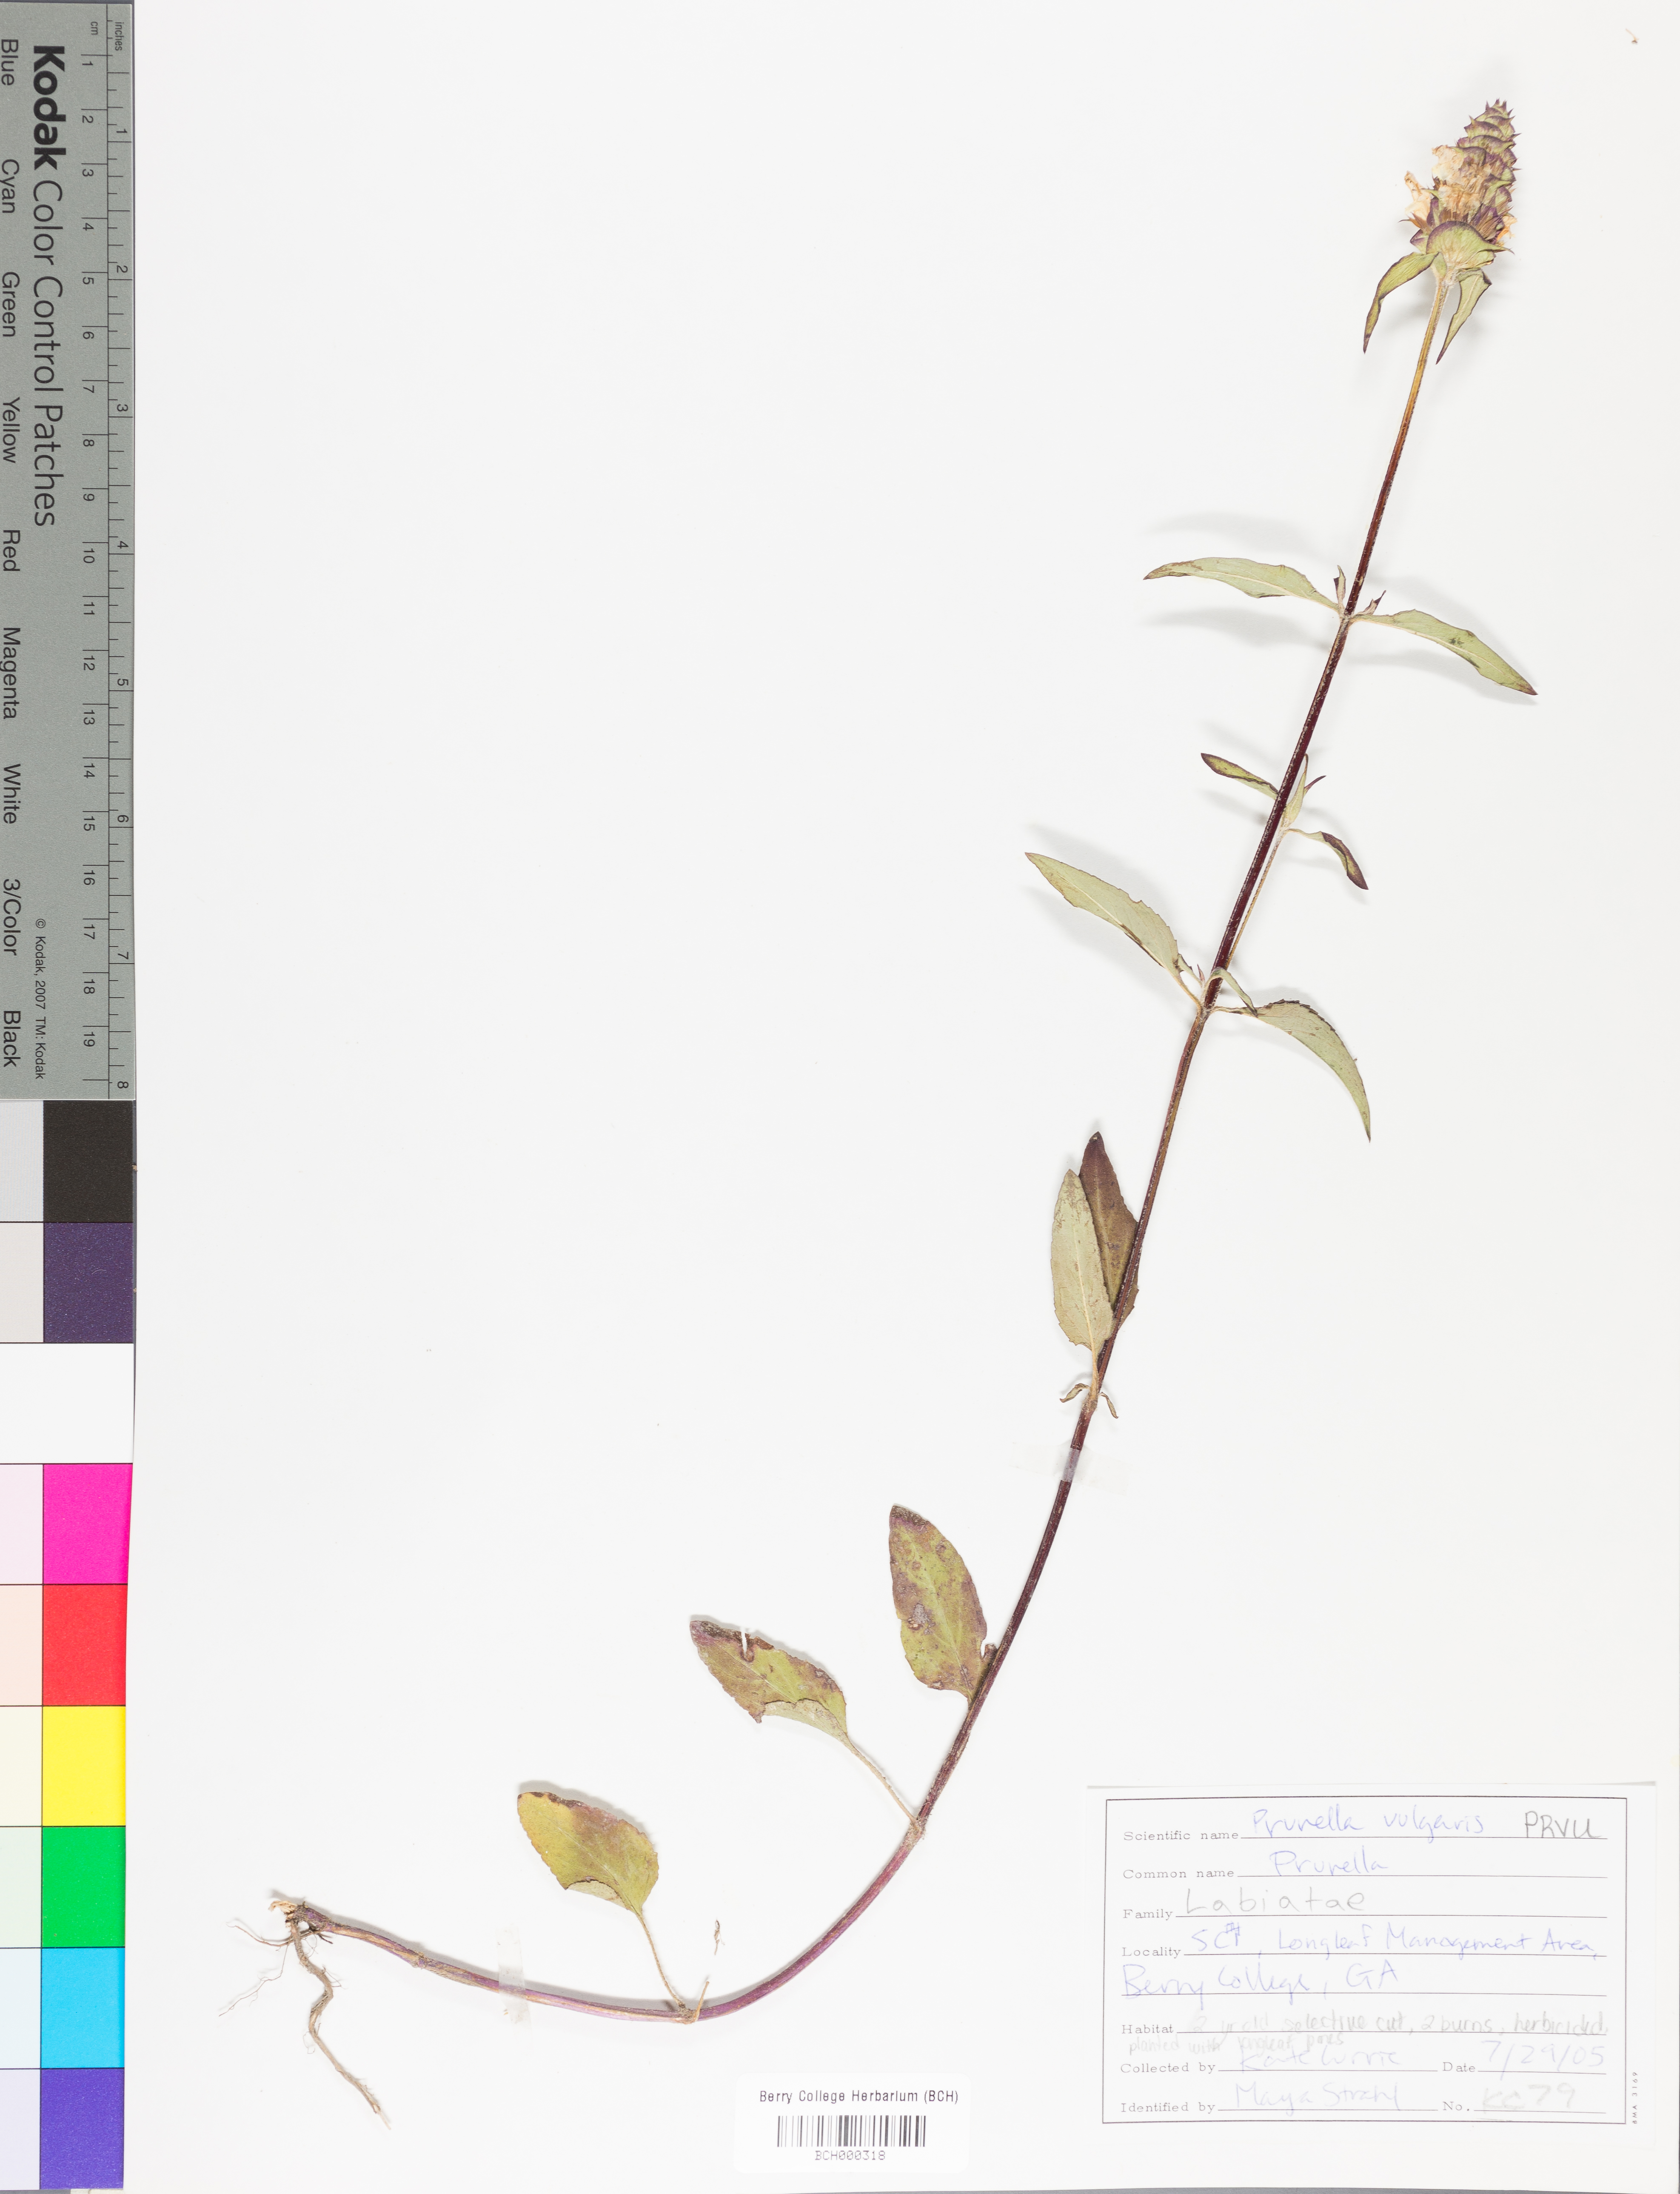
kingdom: Plantae
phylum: Tracheophyta
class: Magnoliopsida
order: Lamiales
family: Lamiaceae
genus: Prunella
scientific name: Prunella vulgaris
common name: Heal-all
